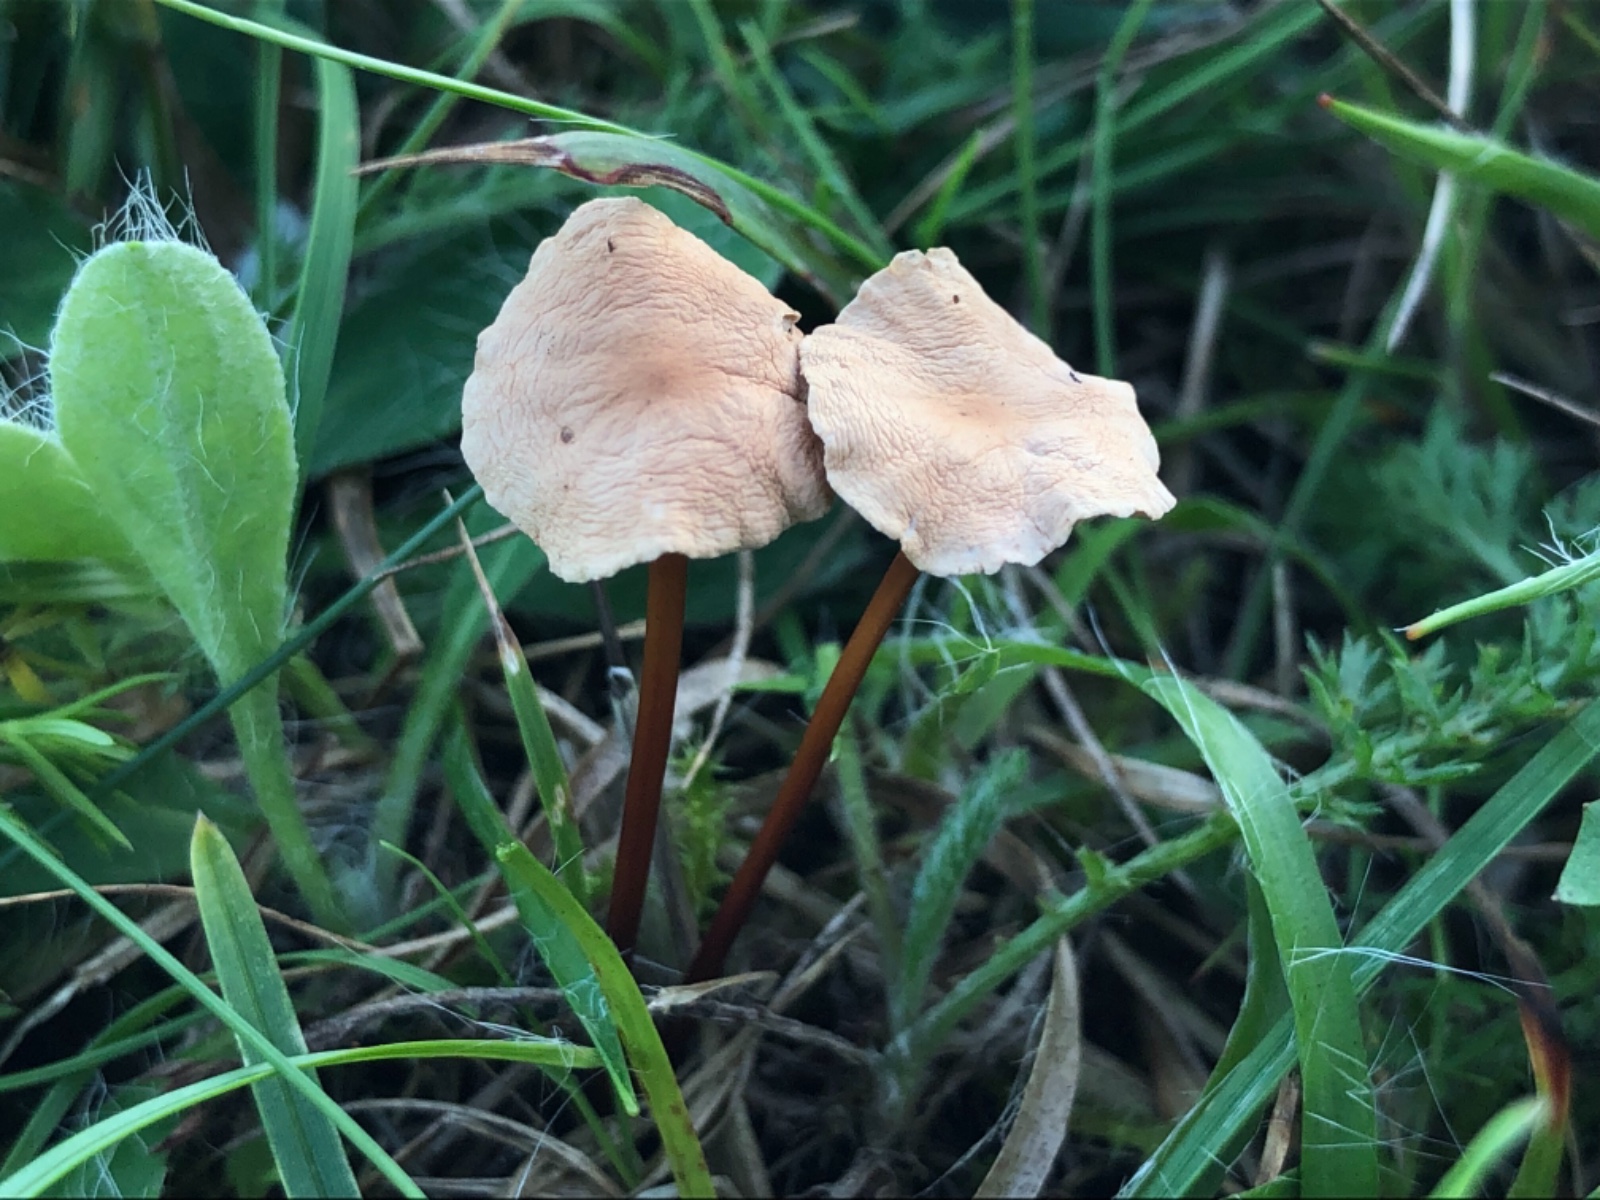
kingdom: Fungi
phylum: Basidiomycota
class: Agaricomycetes
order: Agaricales
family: Omphalotaceae
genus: Mycetinis
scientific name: Mycetinis scorodonius
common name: lille løghat
